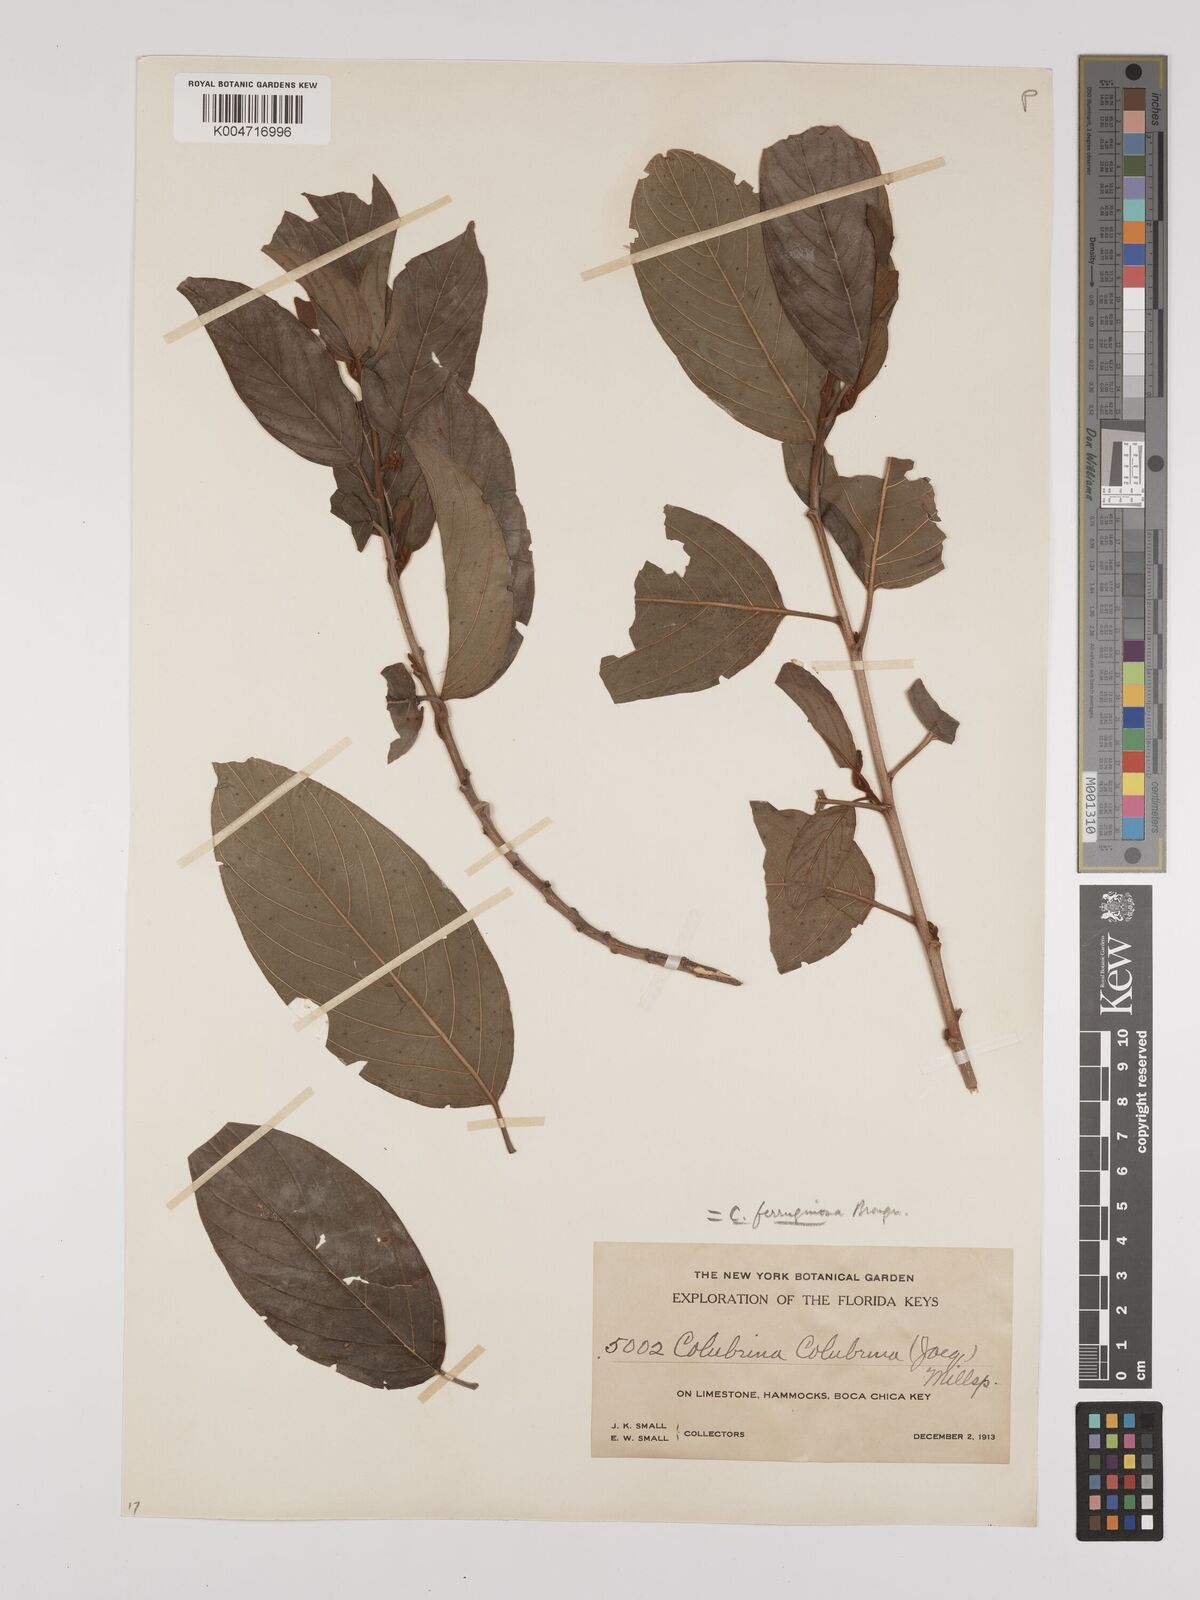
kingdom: Plantae
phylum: Tracheophyta
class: Magnoliopsida
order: Rosales
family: Rhamnaceae
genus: Colubrina
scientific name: Colubrina arborescens
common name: Wild coffee
